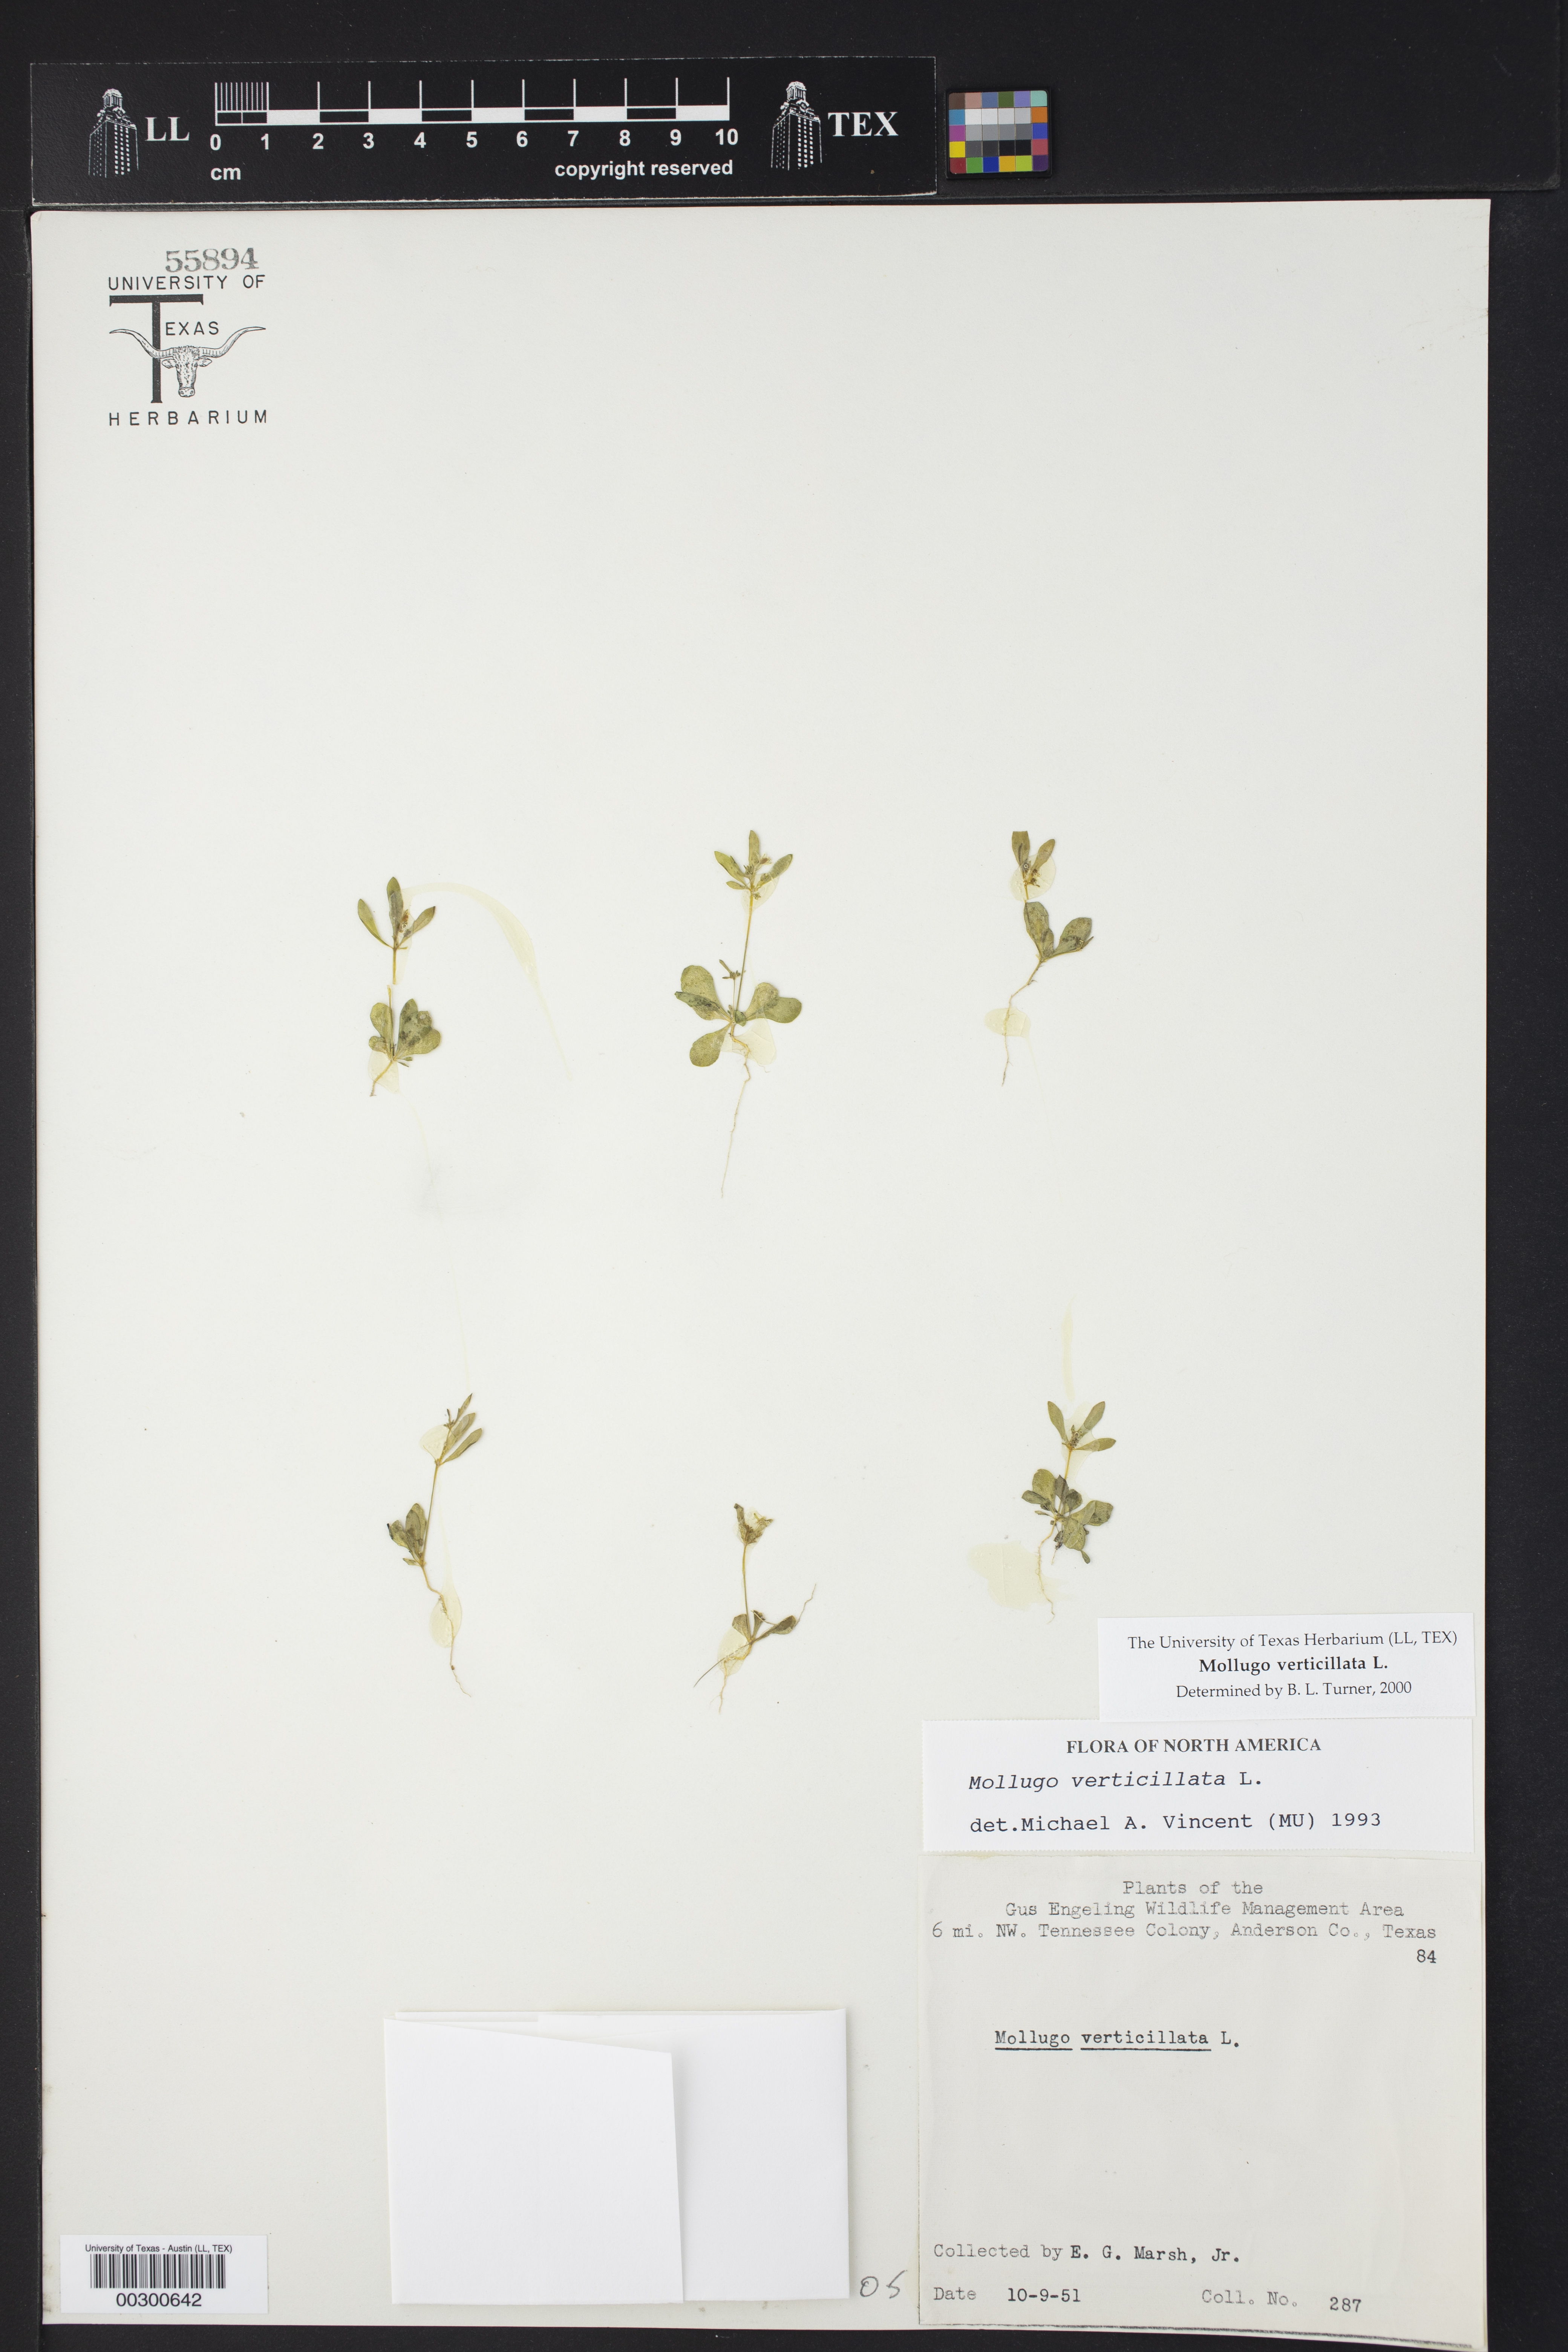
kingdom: Plantae
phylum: Tracheophyta
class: Magnoliopsida
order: Caryophyllales
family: Molluginaceae
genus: Mollugo
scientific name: Mollugo verticillata
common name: Green carpetweed
